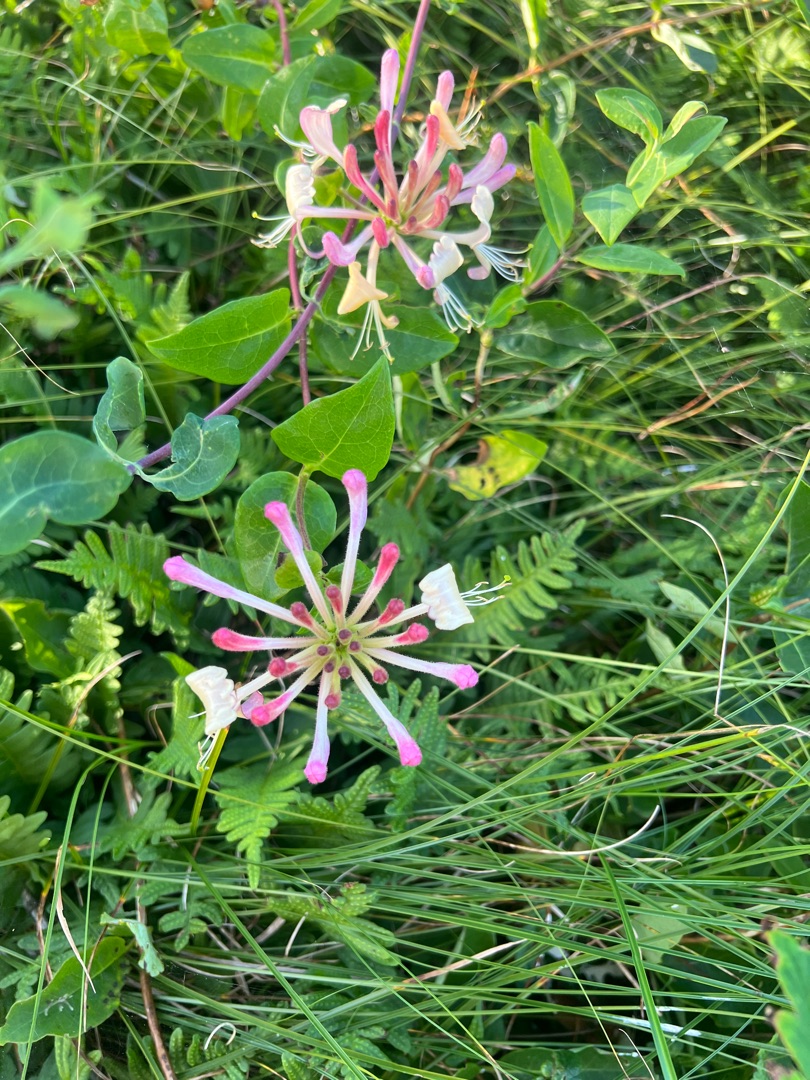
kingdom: Plantae
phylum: Tracheophyta
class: Magnoliopsida
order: Dipsacales
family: Caprifoliaceae
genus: Lonicera
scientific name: Lonicera periclymenum
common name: Almindelig gedeblad
